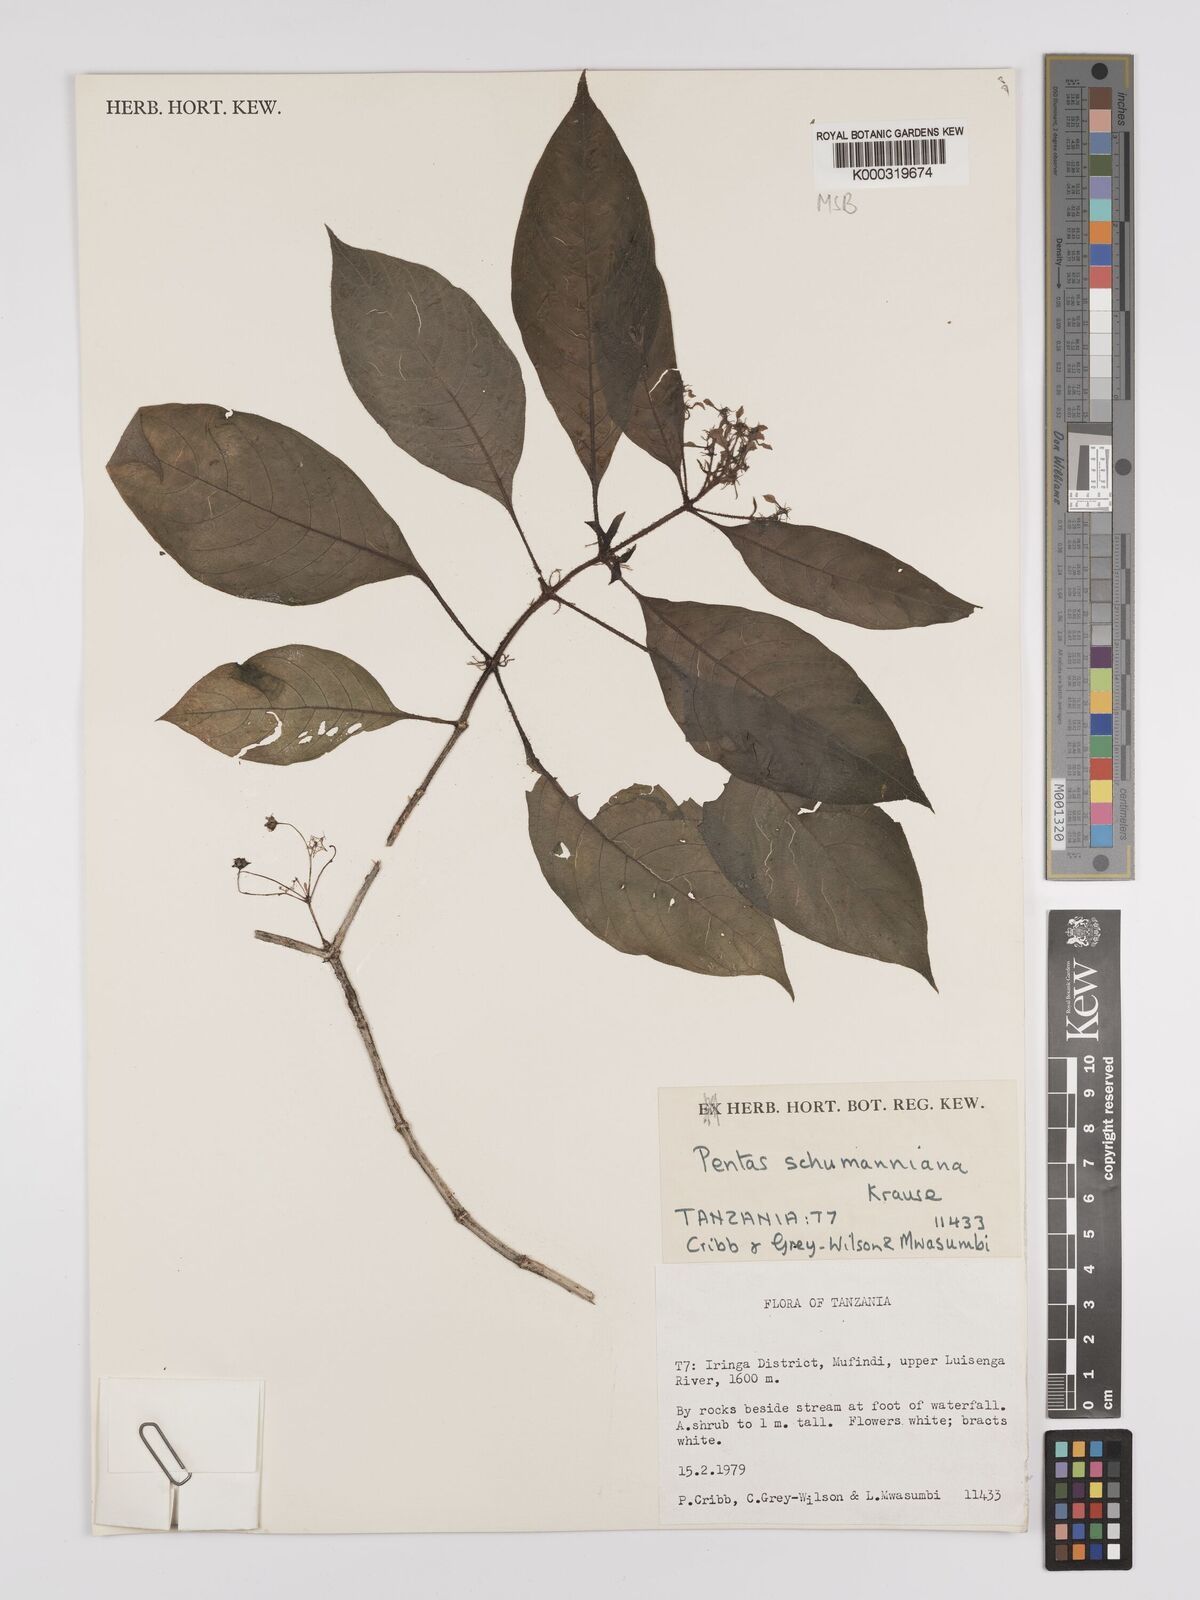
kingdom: Plantae
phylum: Tracheophyta
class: Magnoliopsida
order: Gentianales
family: Rubiaceae
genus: Phyllopentas
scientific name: Phyllopentas schumanniana
